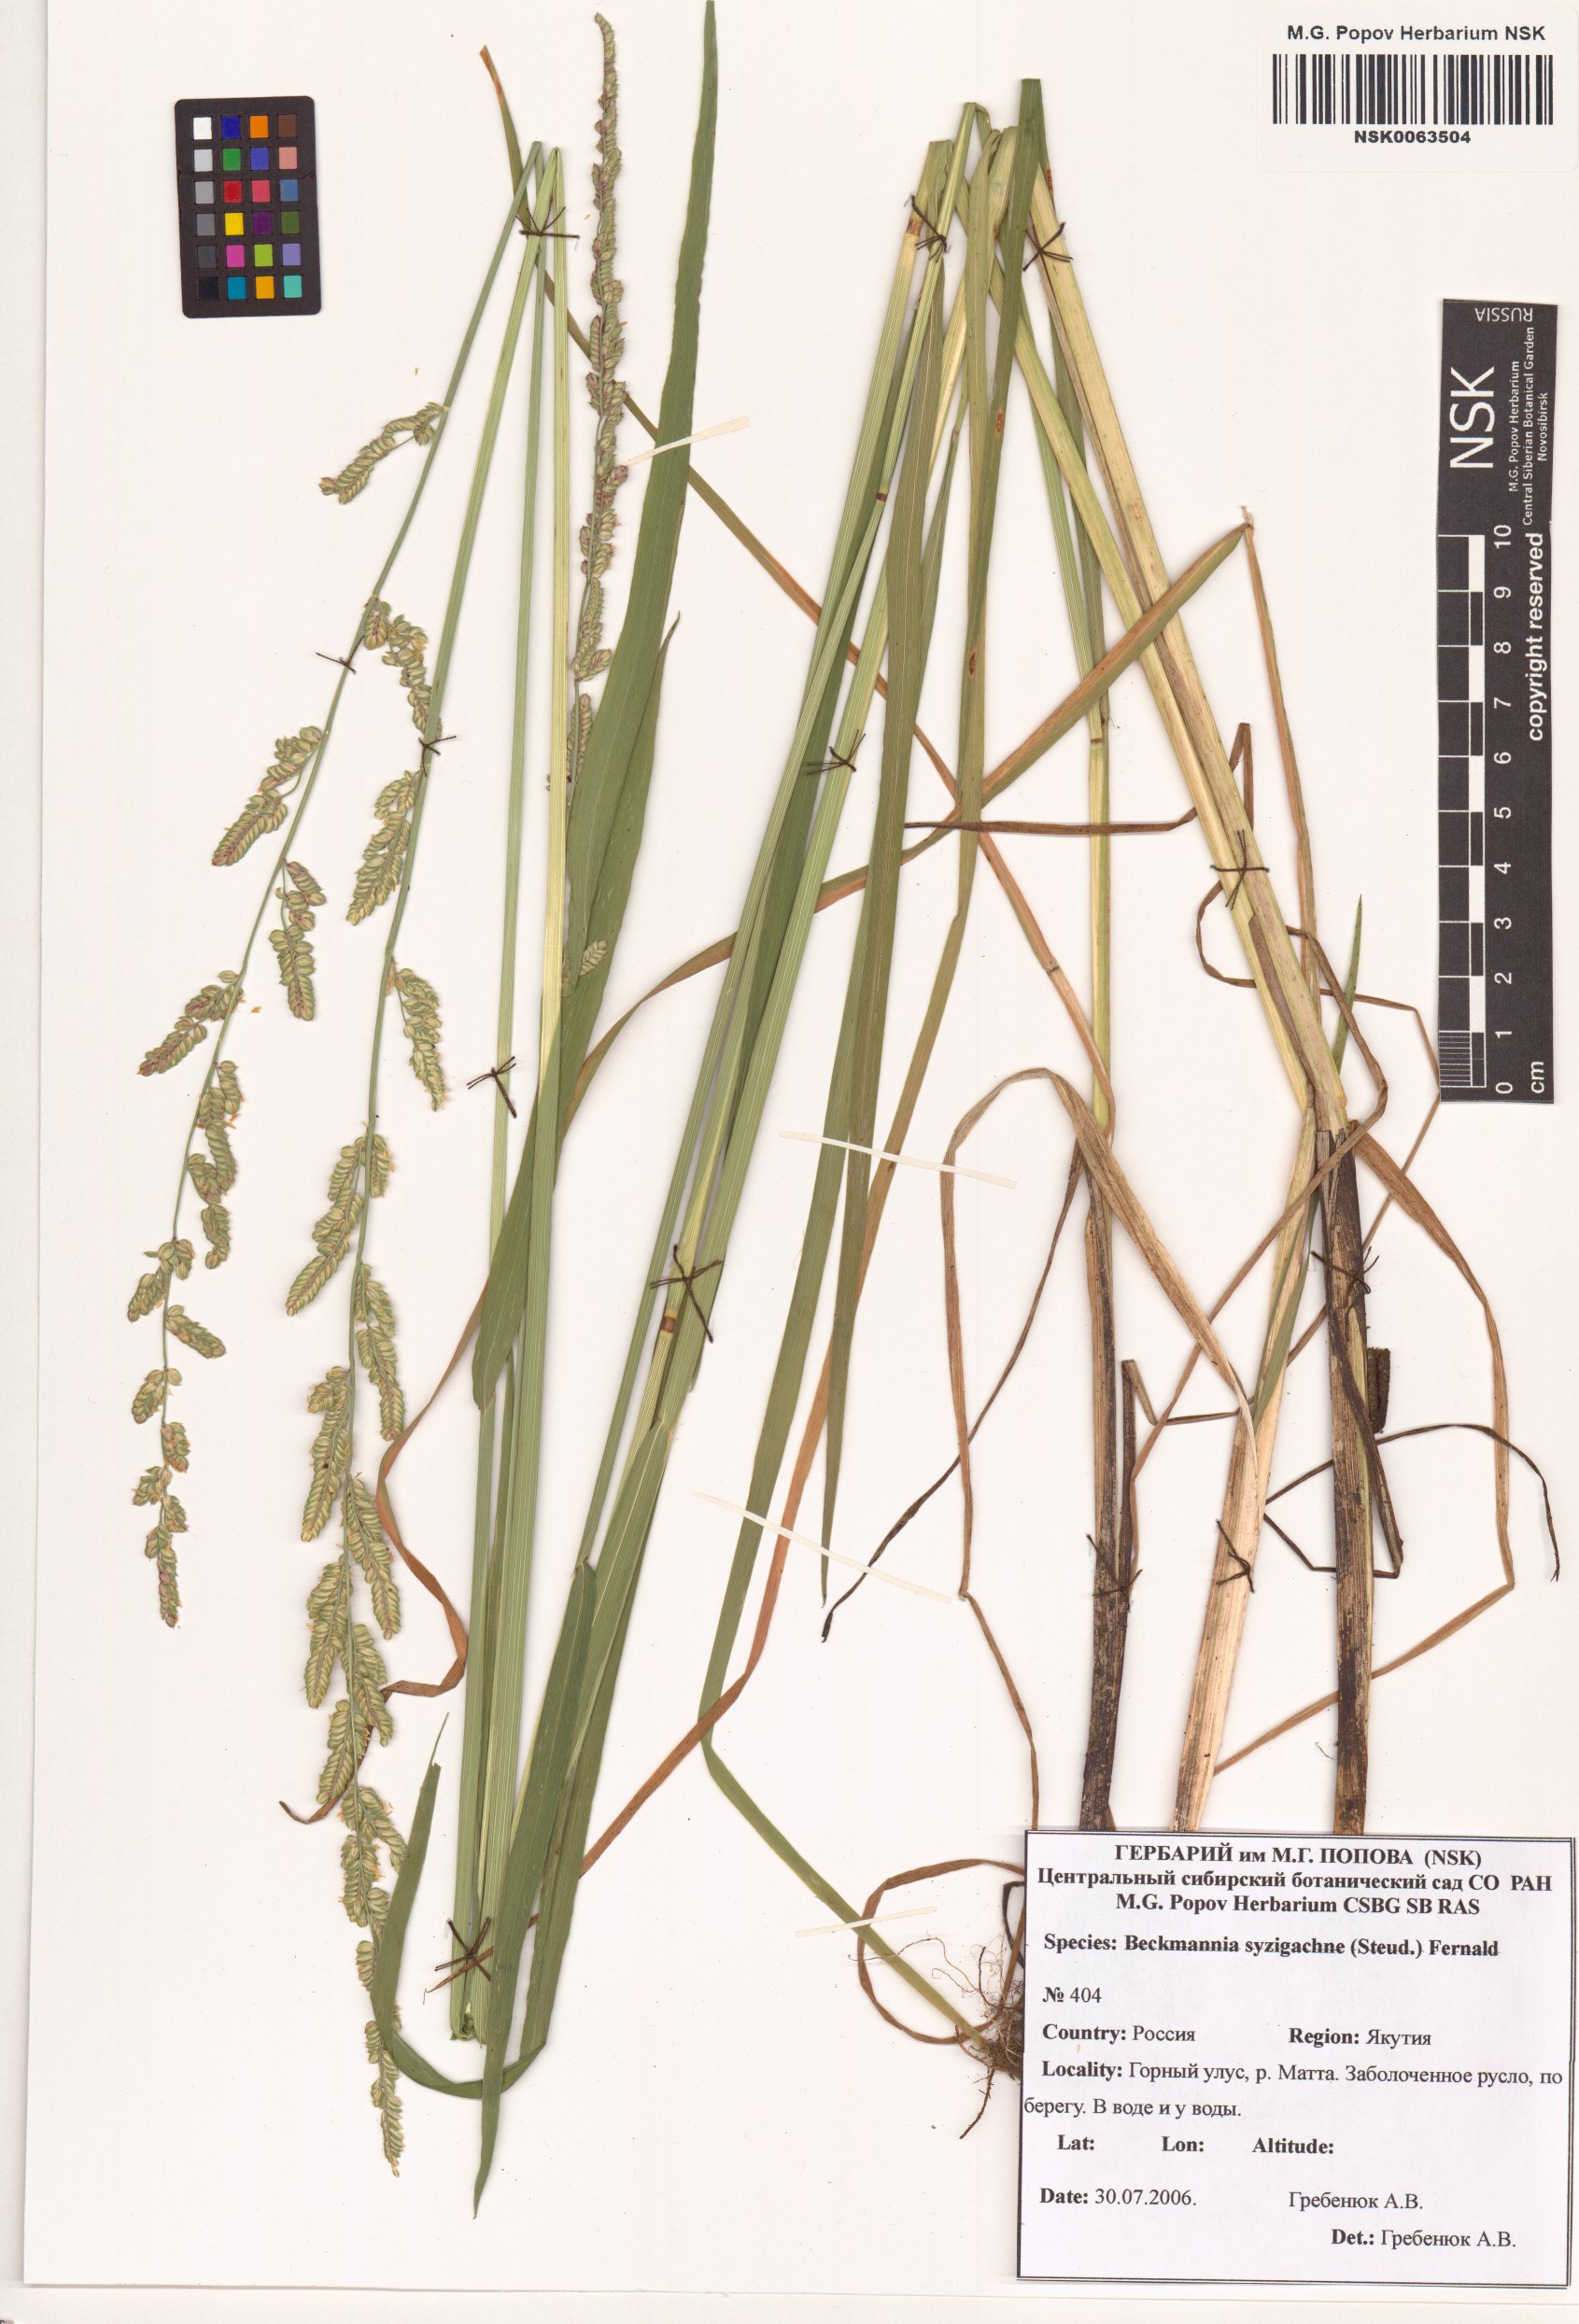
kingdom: Plantae
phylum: Tracheophyta
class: Liliopsida
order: Poales
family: Poaceae
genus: Beckmannia
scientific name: Beckmannia syzigachne
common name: American slough-grass
